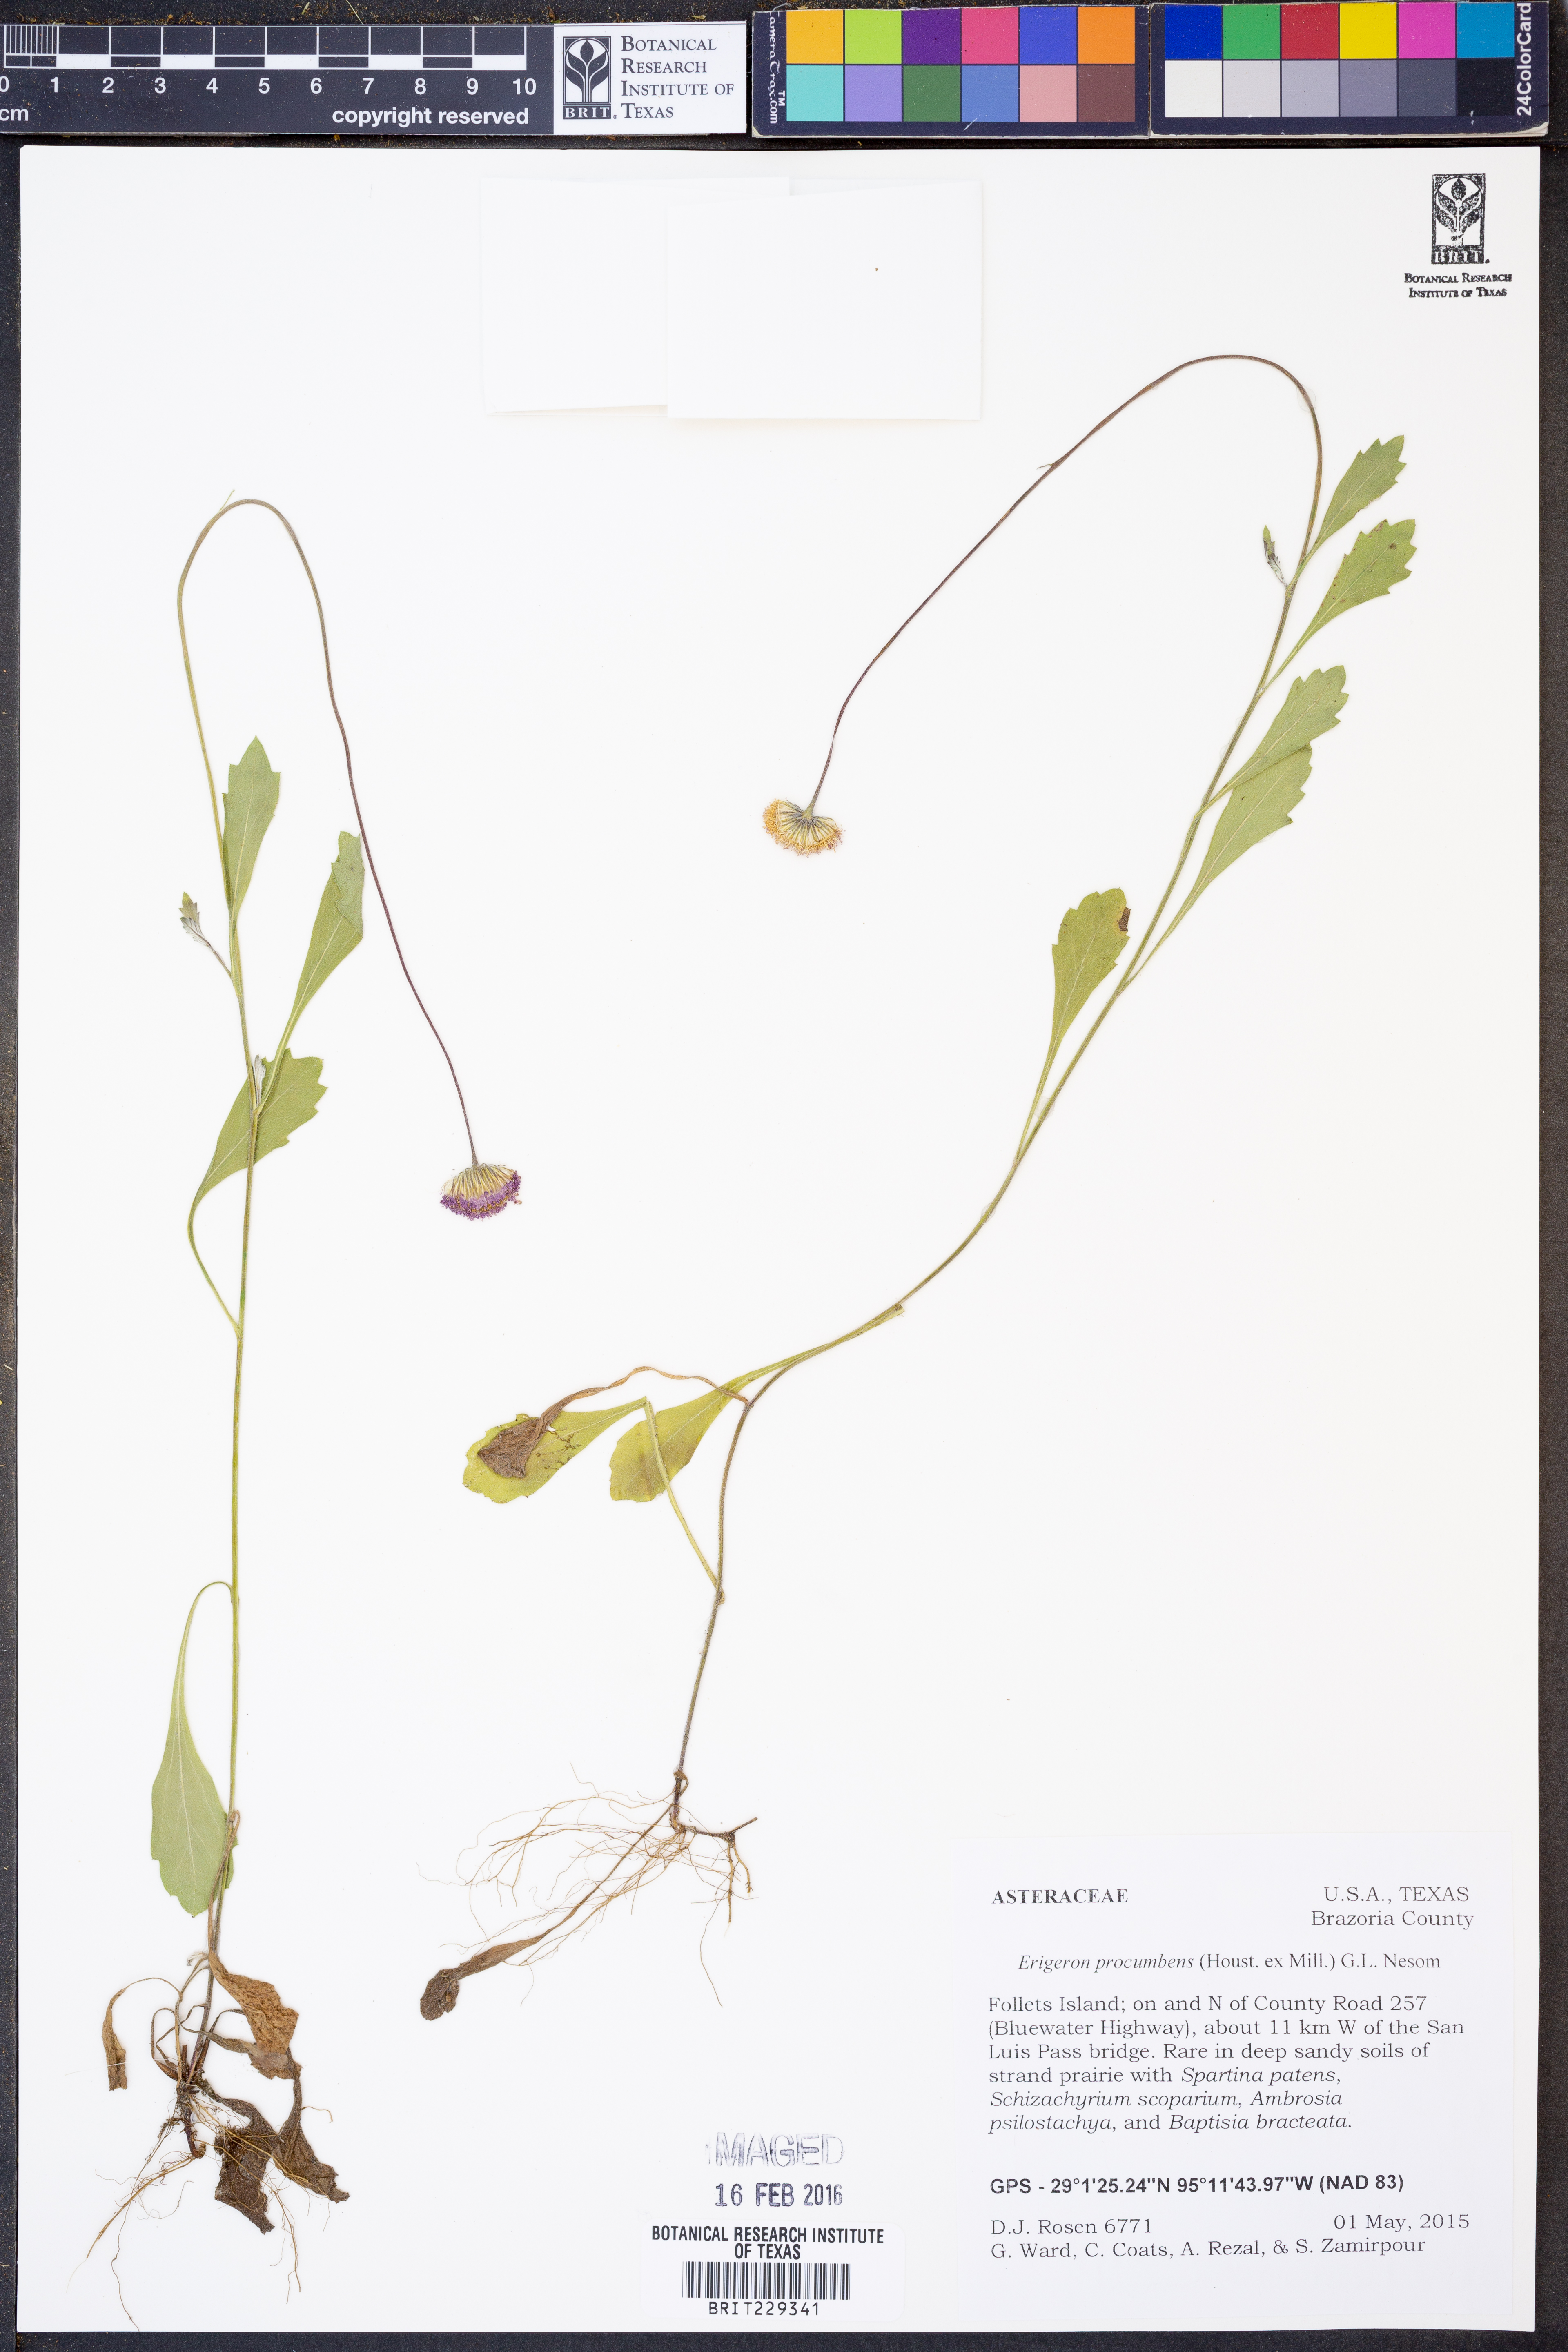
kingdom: Plantae
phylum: Tracheophyta
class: Magnoliopsida
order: Asterales
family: Asteraceae
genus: Erigeron
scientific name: Erigeron procumbens
